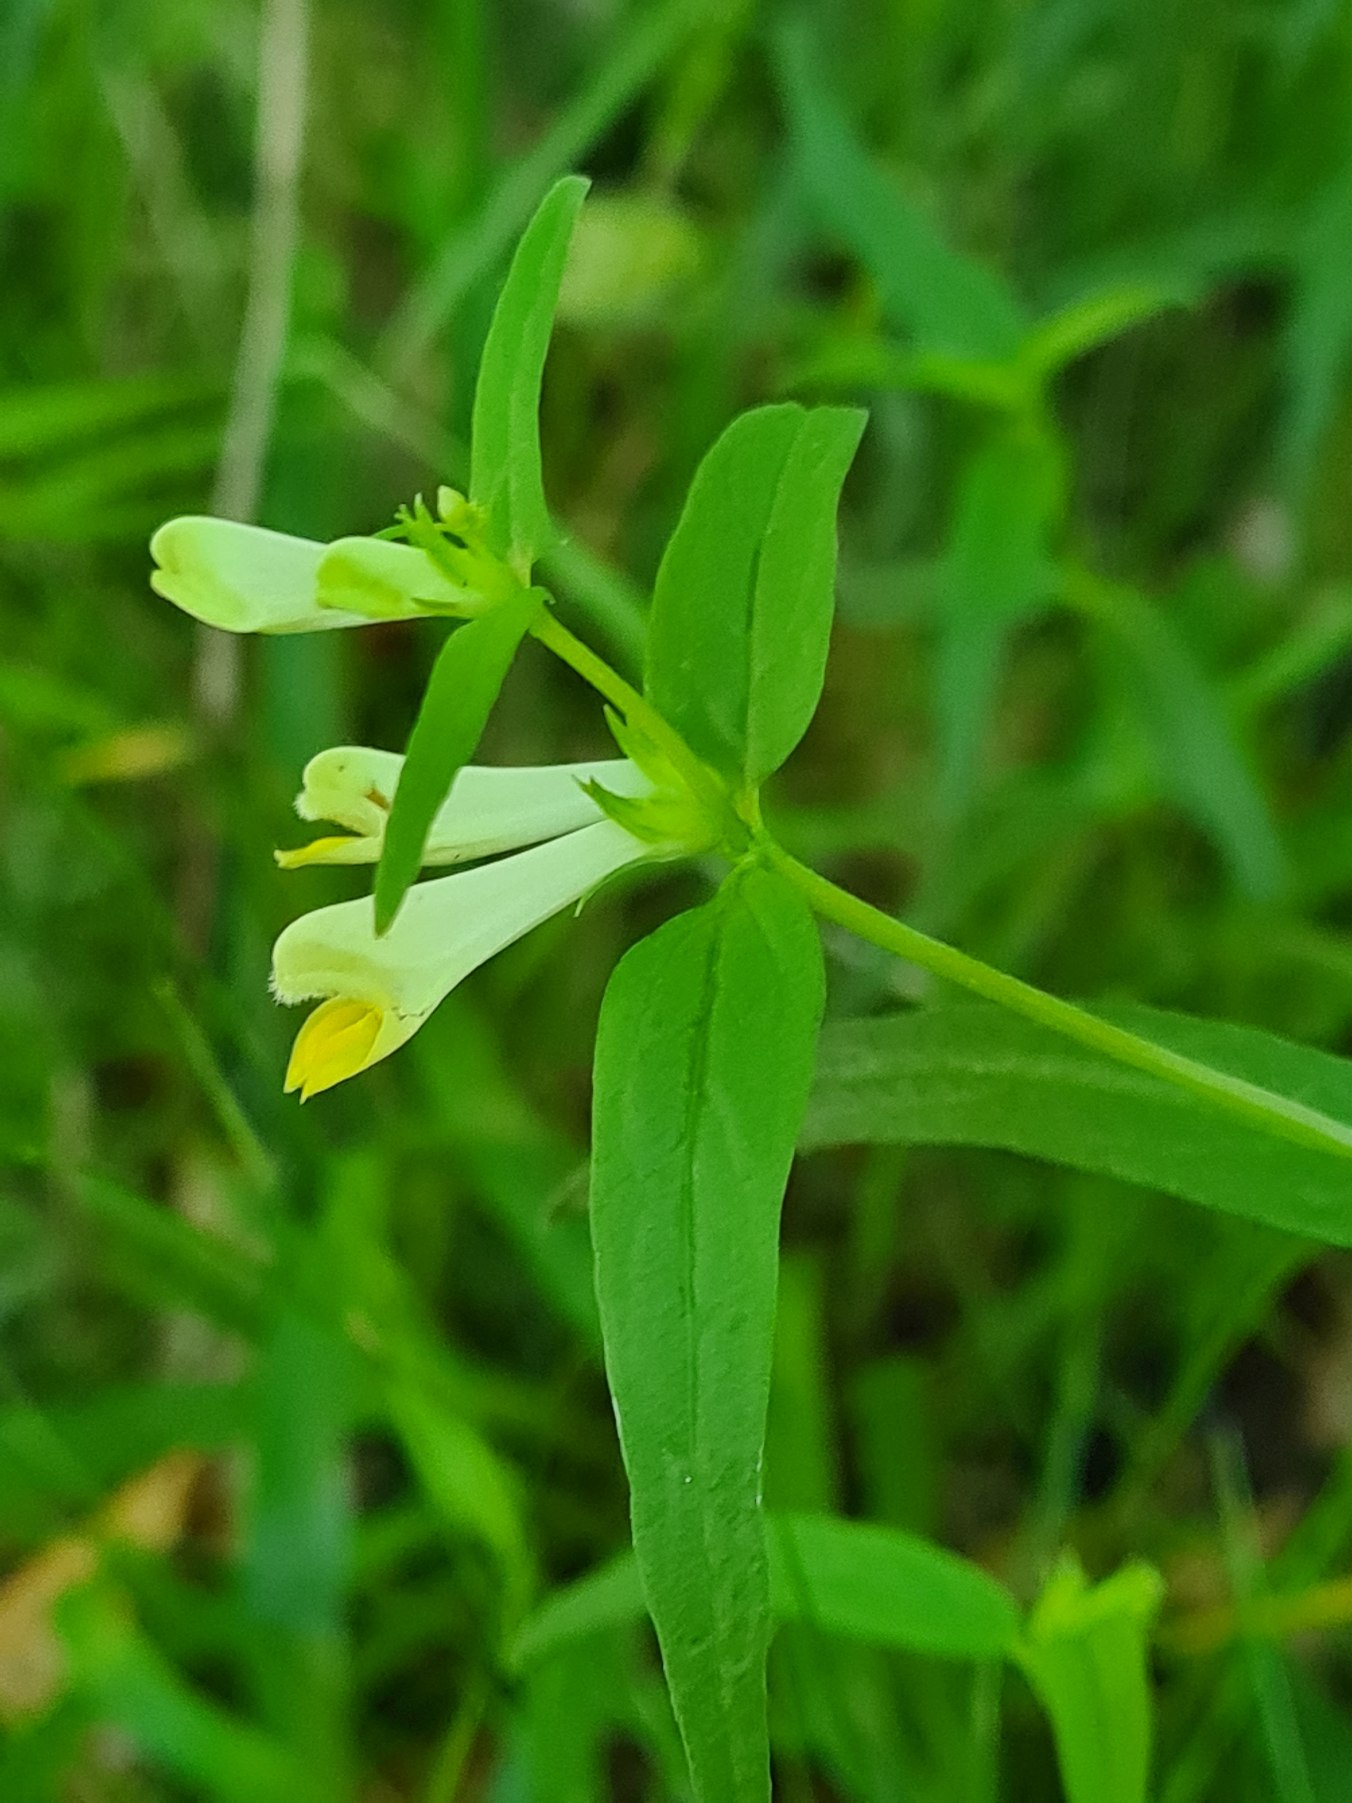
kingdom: Plantae
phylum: Tracheophyta
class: Magnoliopsida
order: Lamiales
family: Orobanchaceae
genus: Melampyrum
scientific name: Melampyrum pratense
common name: Almindelig kohvede
